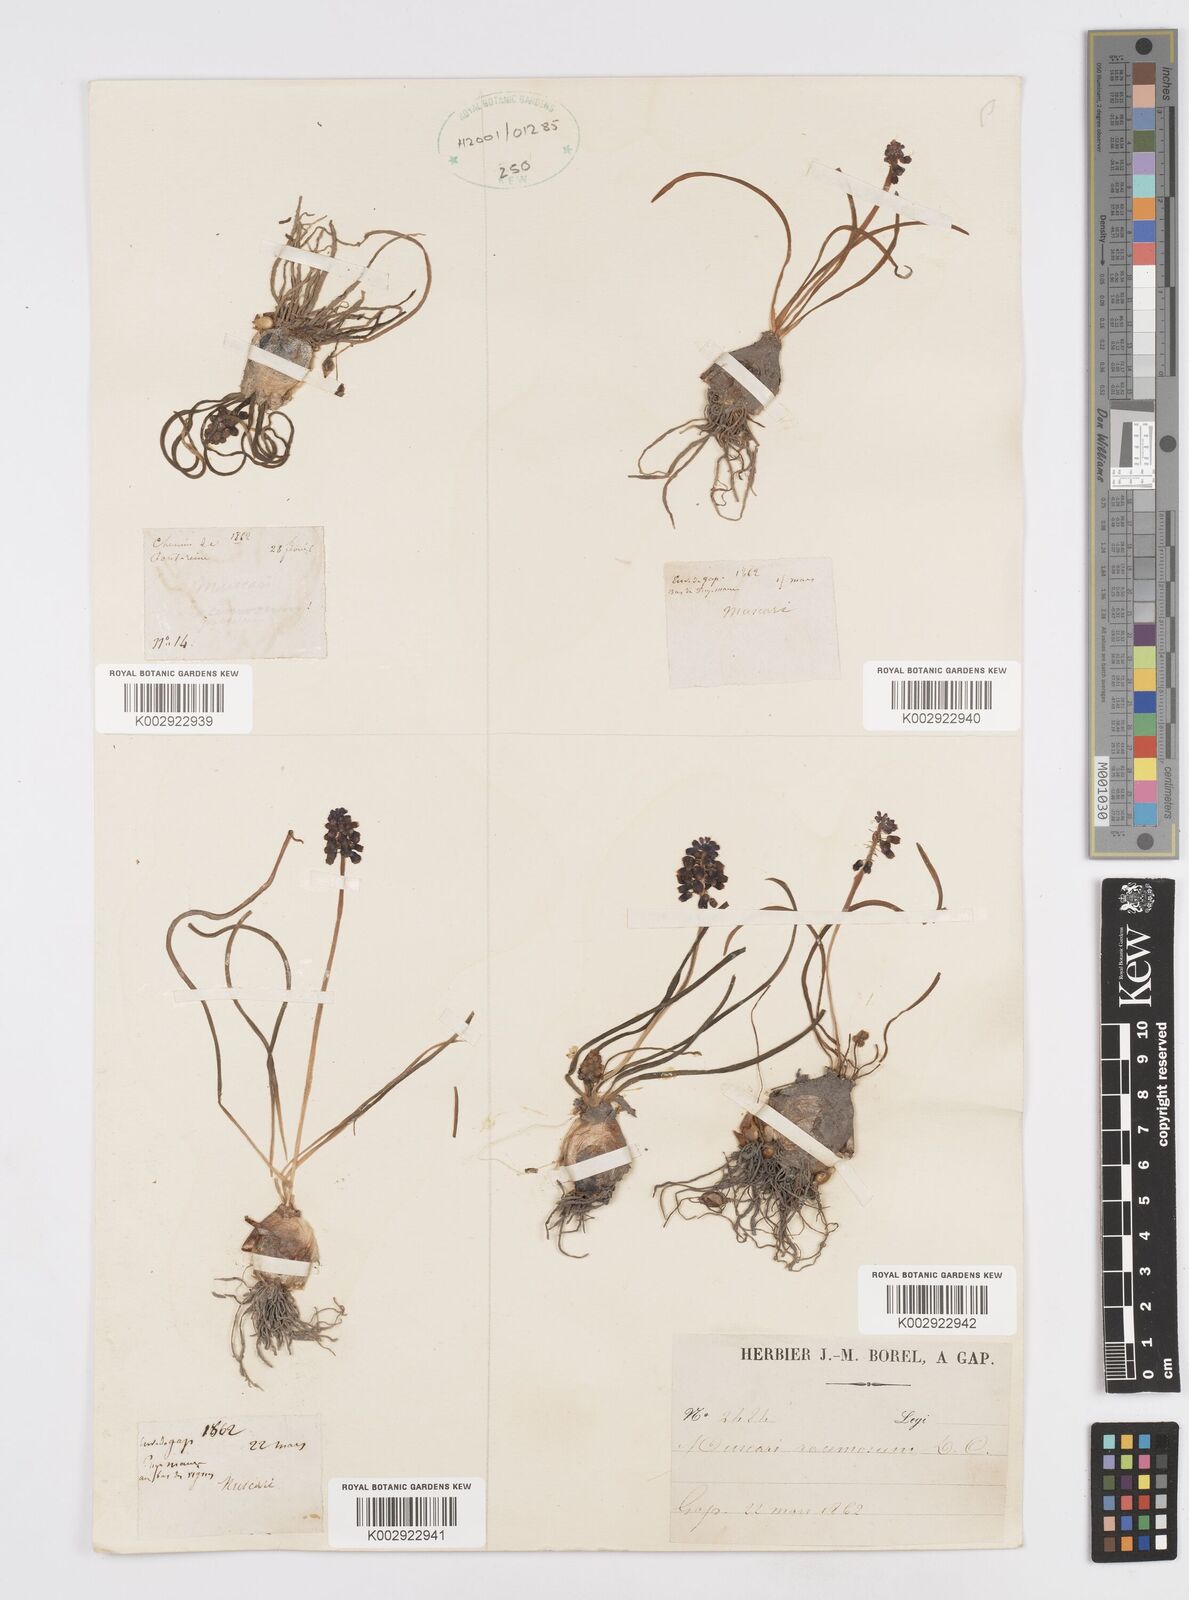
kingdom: Plantae
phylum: Tracheophyta
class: Liliopsida
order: Asparagales
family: Asparagaceae
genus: Muscari
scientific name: Muscari neglectum
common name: Grape-hyacinth
